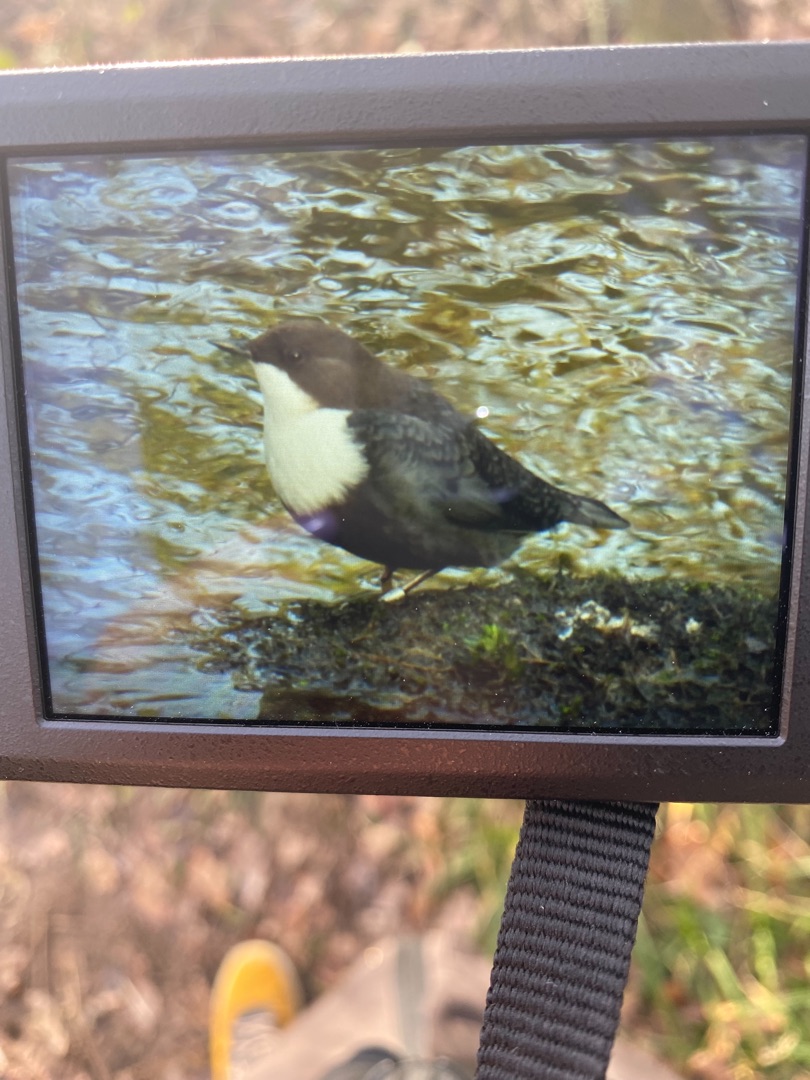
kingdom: Animalia
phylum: Chordata
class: Aves
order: Passeriformes
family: Cinclidae
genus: Cinclus
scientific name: Cinclus cinclus
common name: Vandstær
